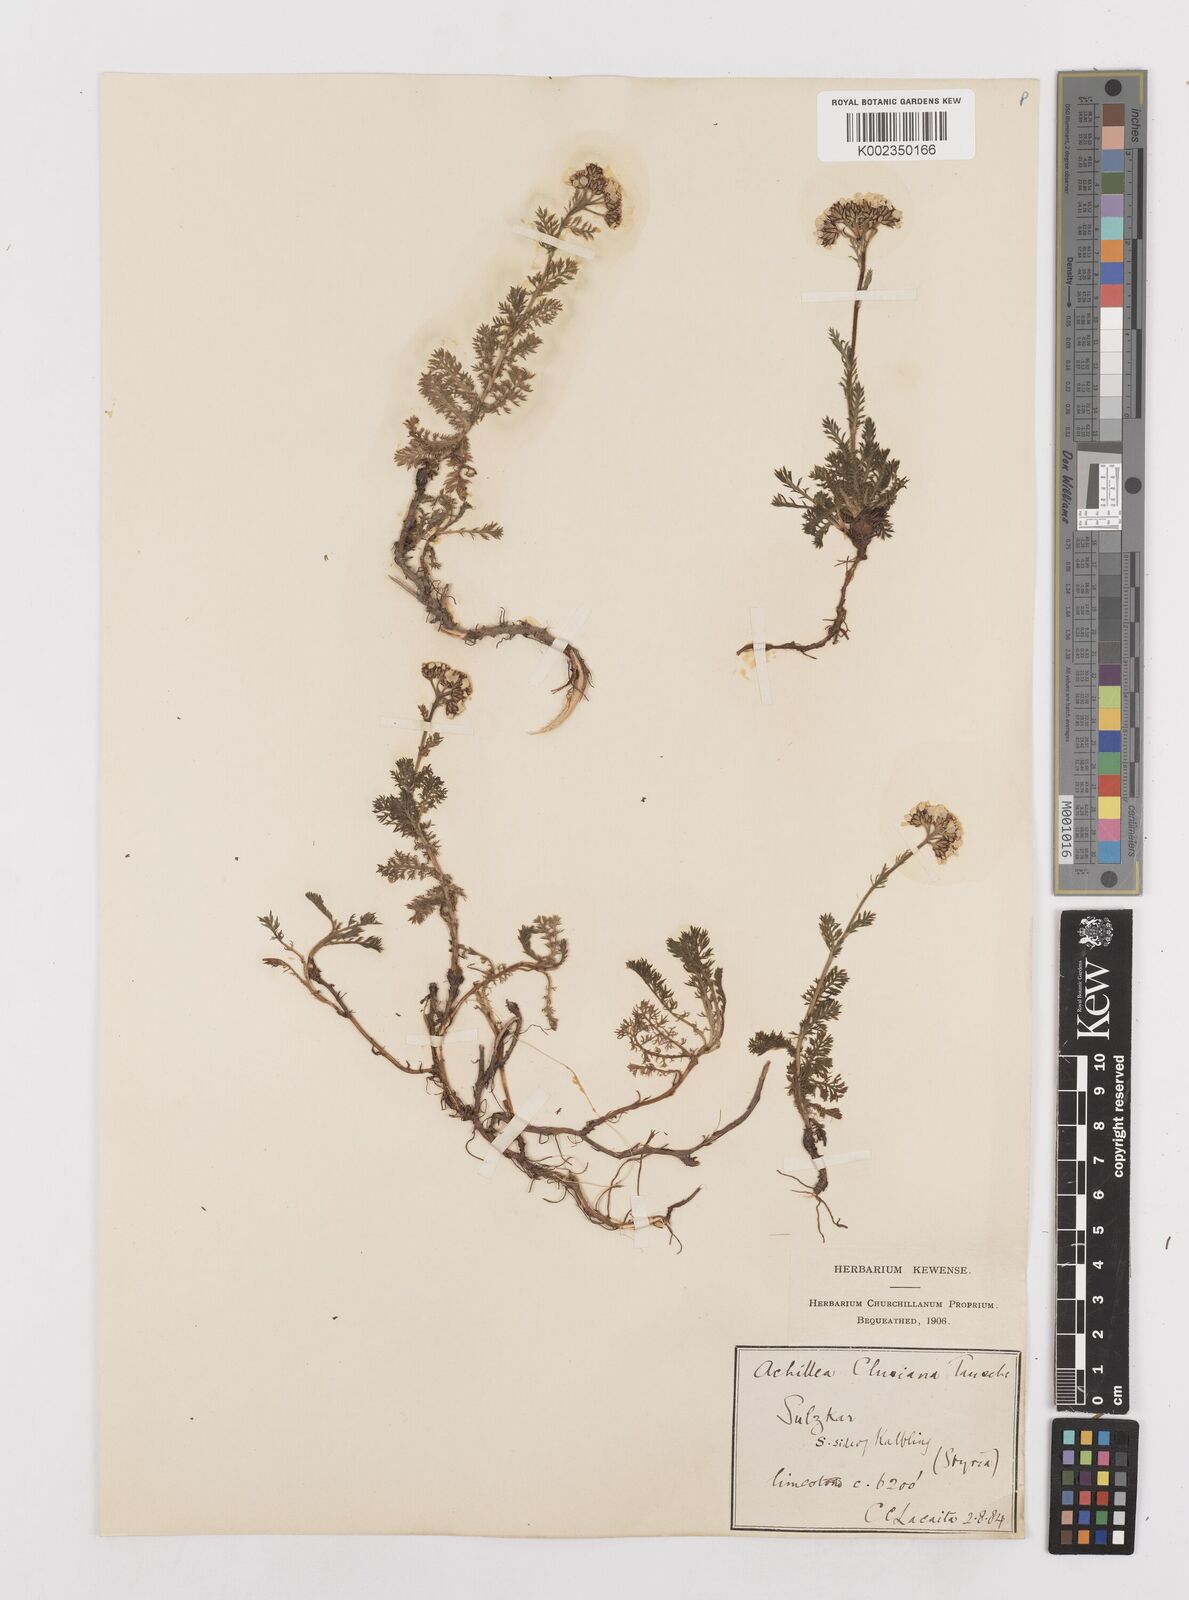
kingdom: Plantae
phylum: Tracheophyta
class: Magnoliopsida
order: Asterales
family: Asteraceae
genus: Achillea
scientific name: Achillea clusiana
